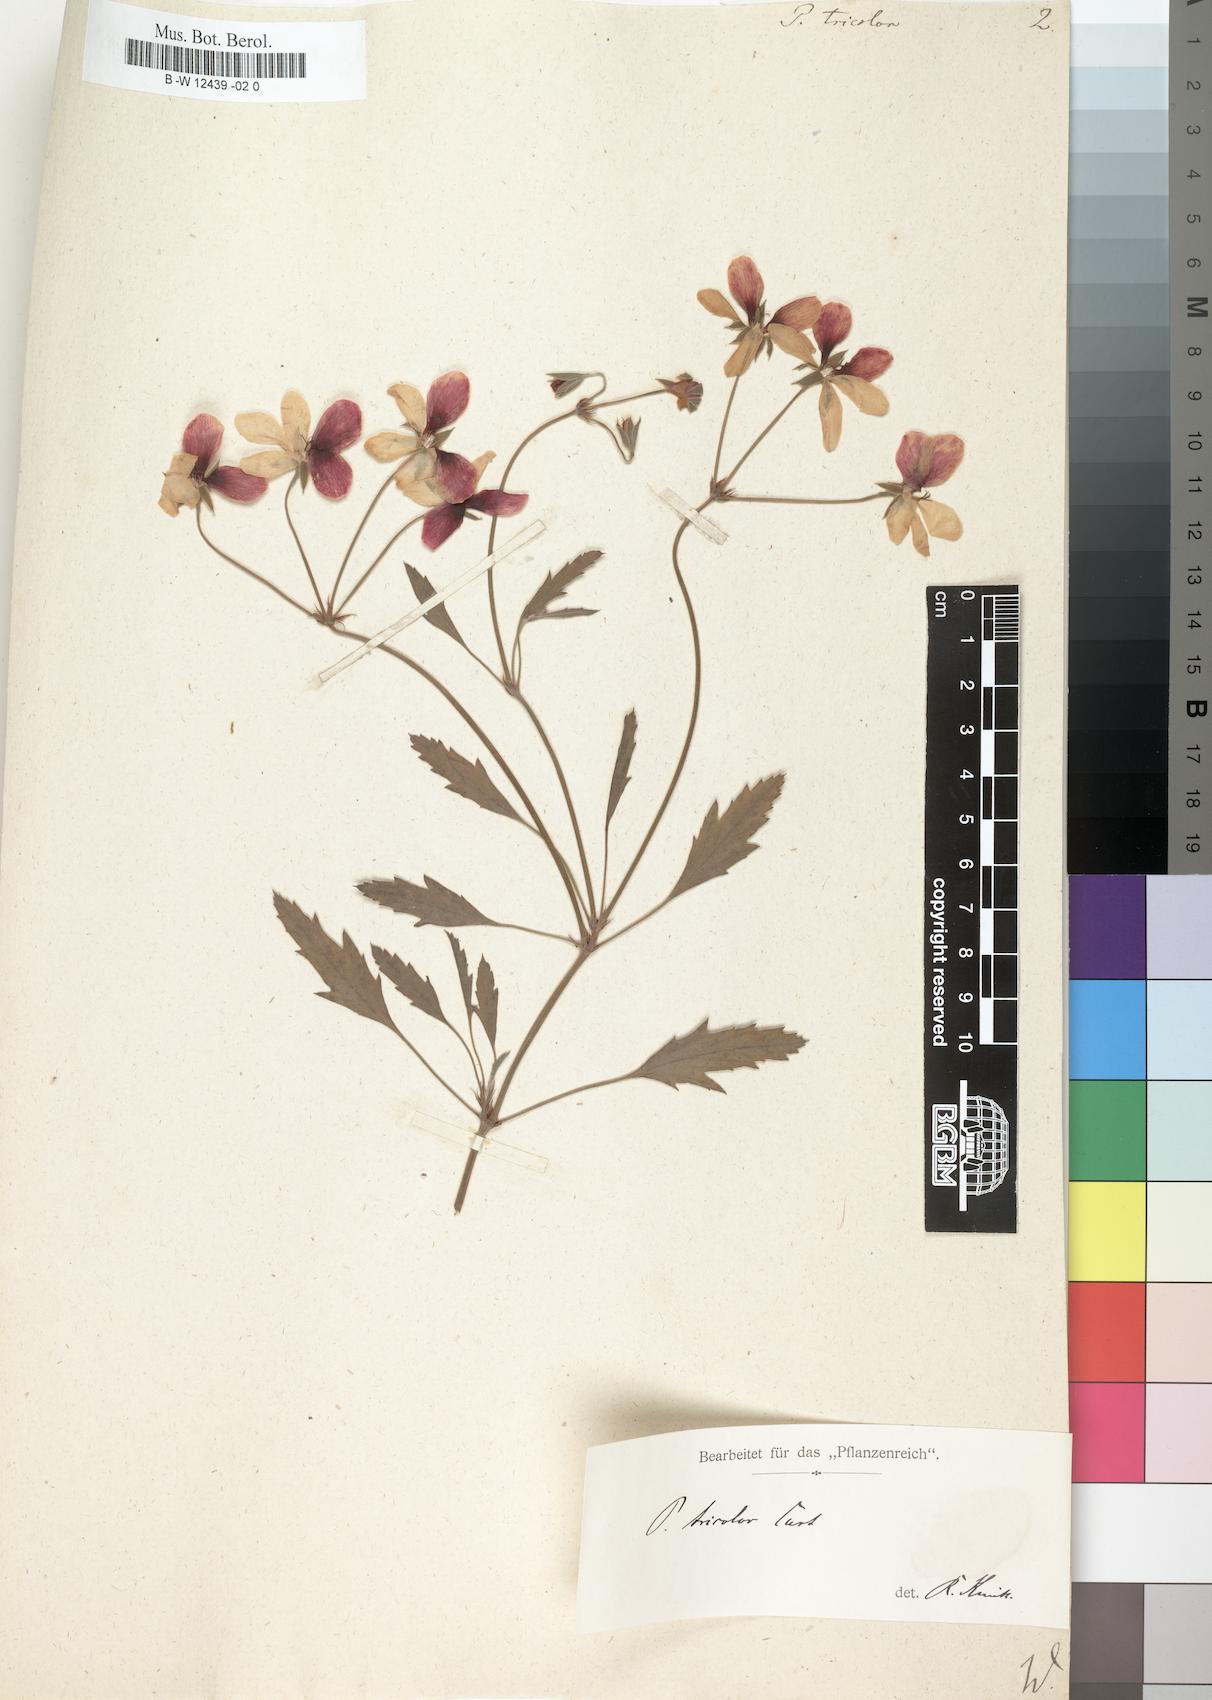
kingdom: Plantae
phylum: Tracheophyta
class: Magnoliopsida
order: Geraniales
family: Geraniaceae
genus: Pelargonium
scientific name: Pelargonium tricolor
